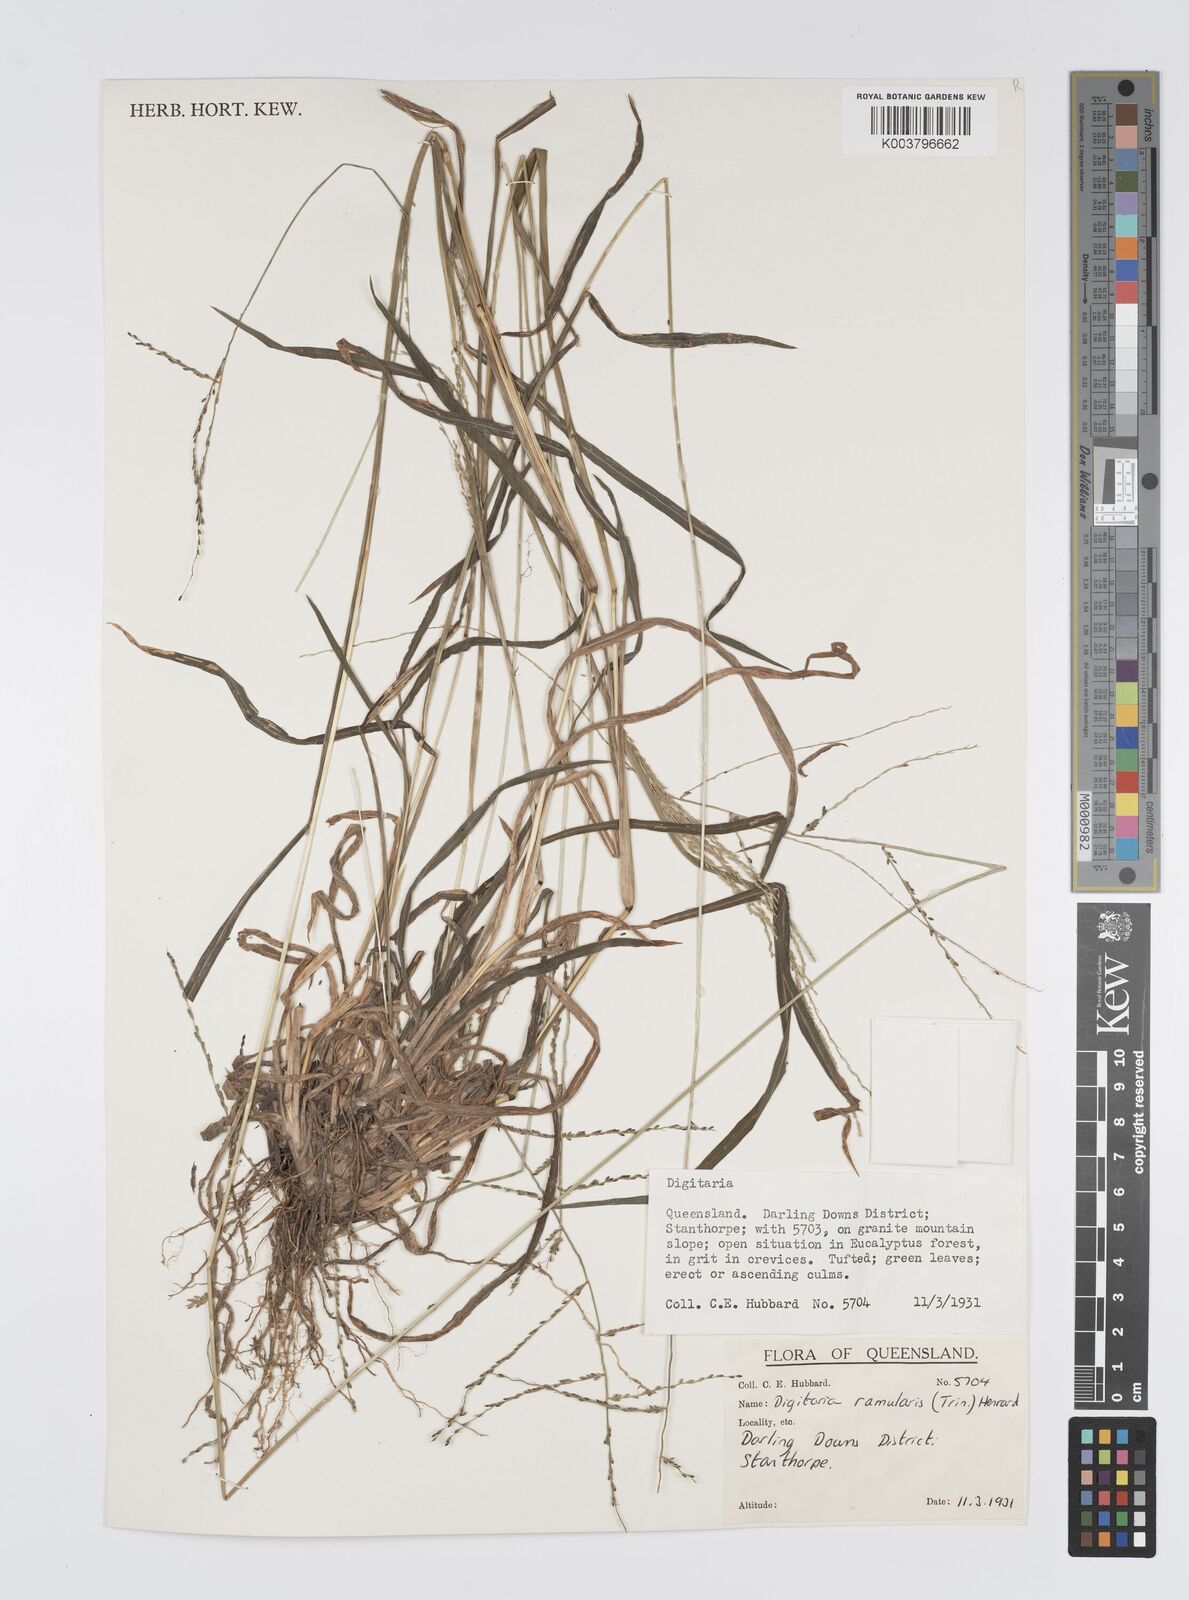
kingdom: Plantae
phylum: Tracheophyta
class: Liliopsida
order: Poales
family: Poaceae
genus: Digitaria
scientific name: Digitaria ramularis
